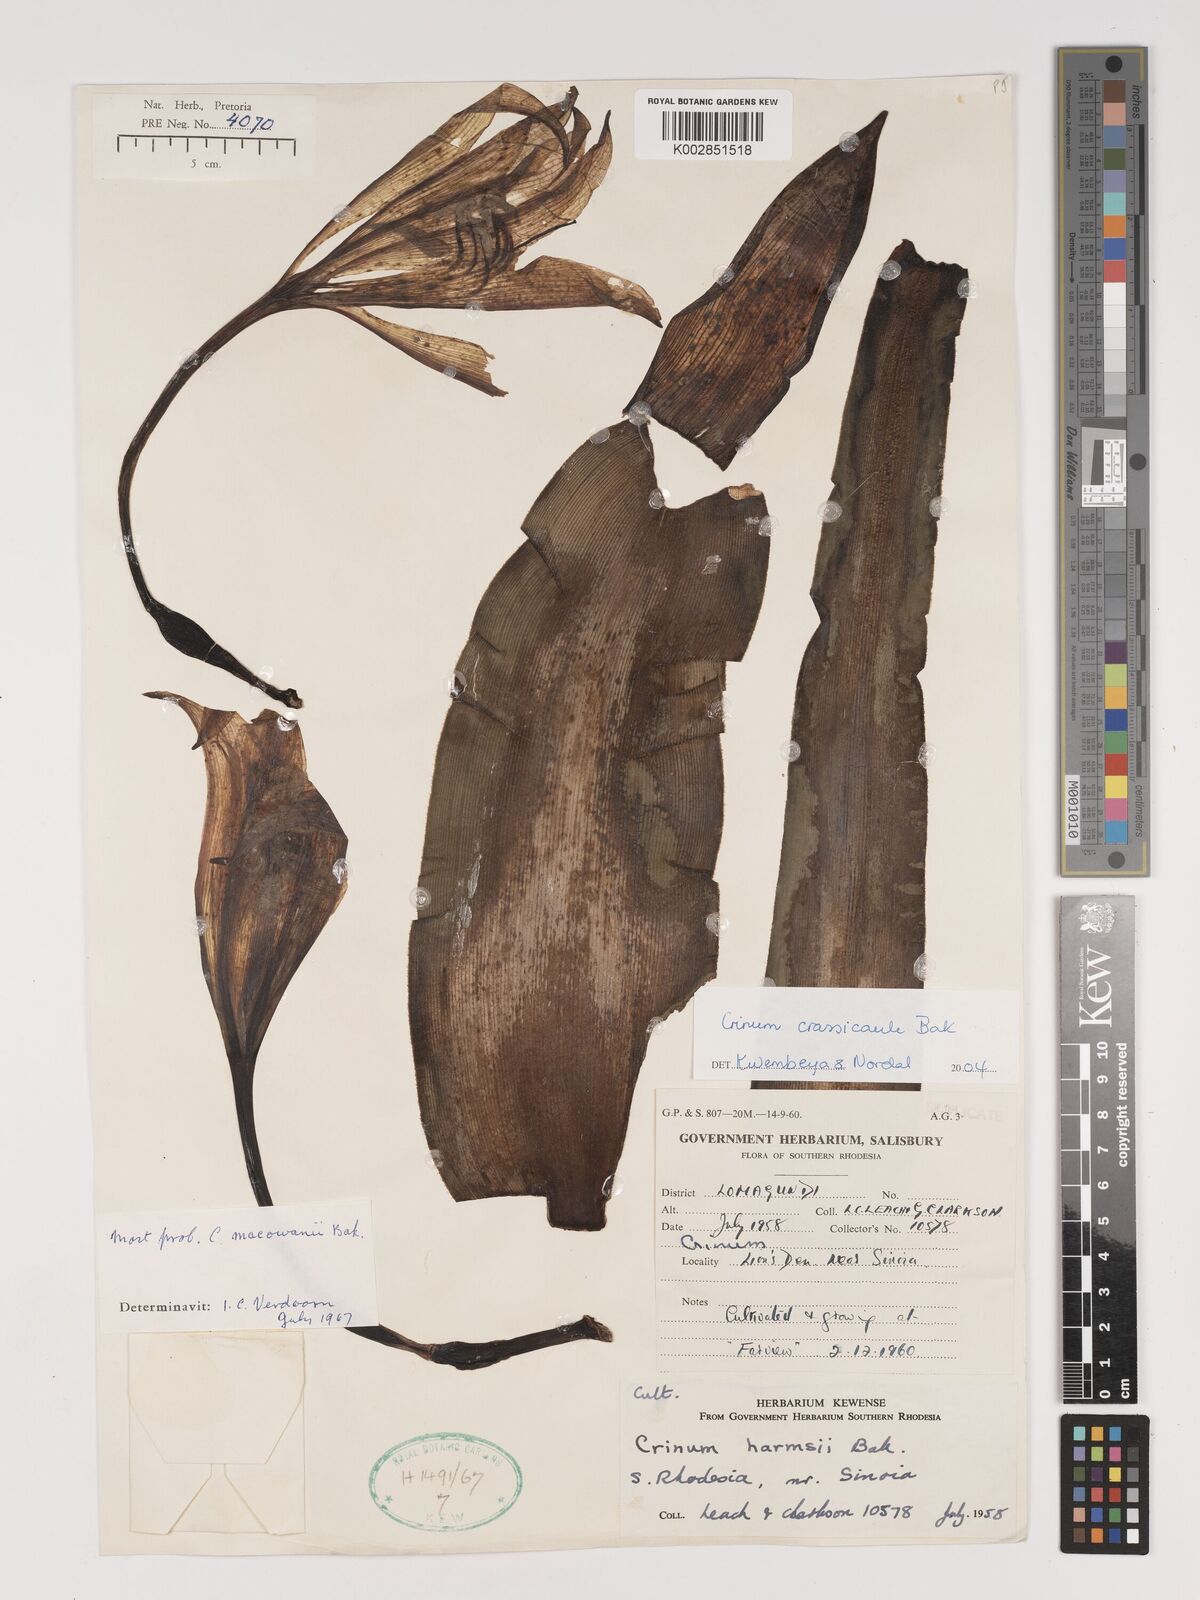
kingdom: Plantae
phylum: Tracheophyta
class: Liliopsida
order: Asparagales
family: Amaryllidaceae
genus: Crinum
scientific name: Crinum crassicaule
